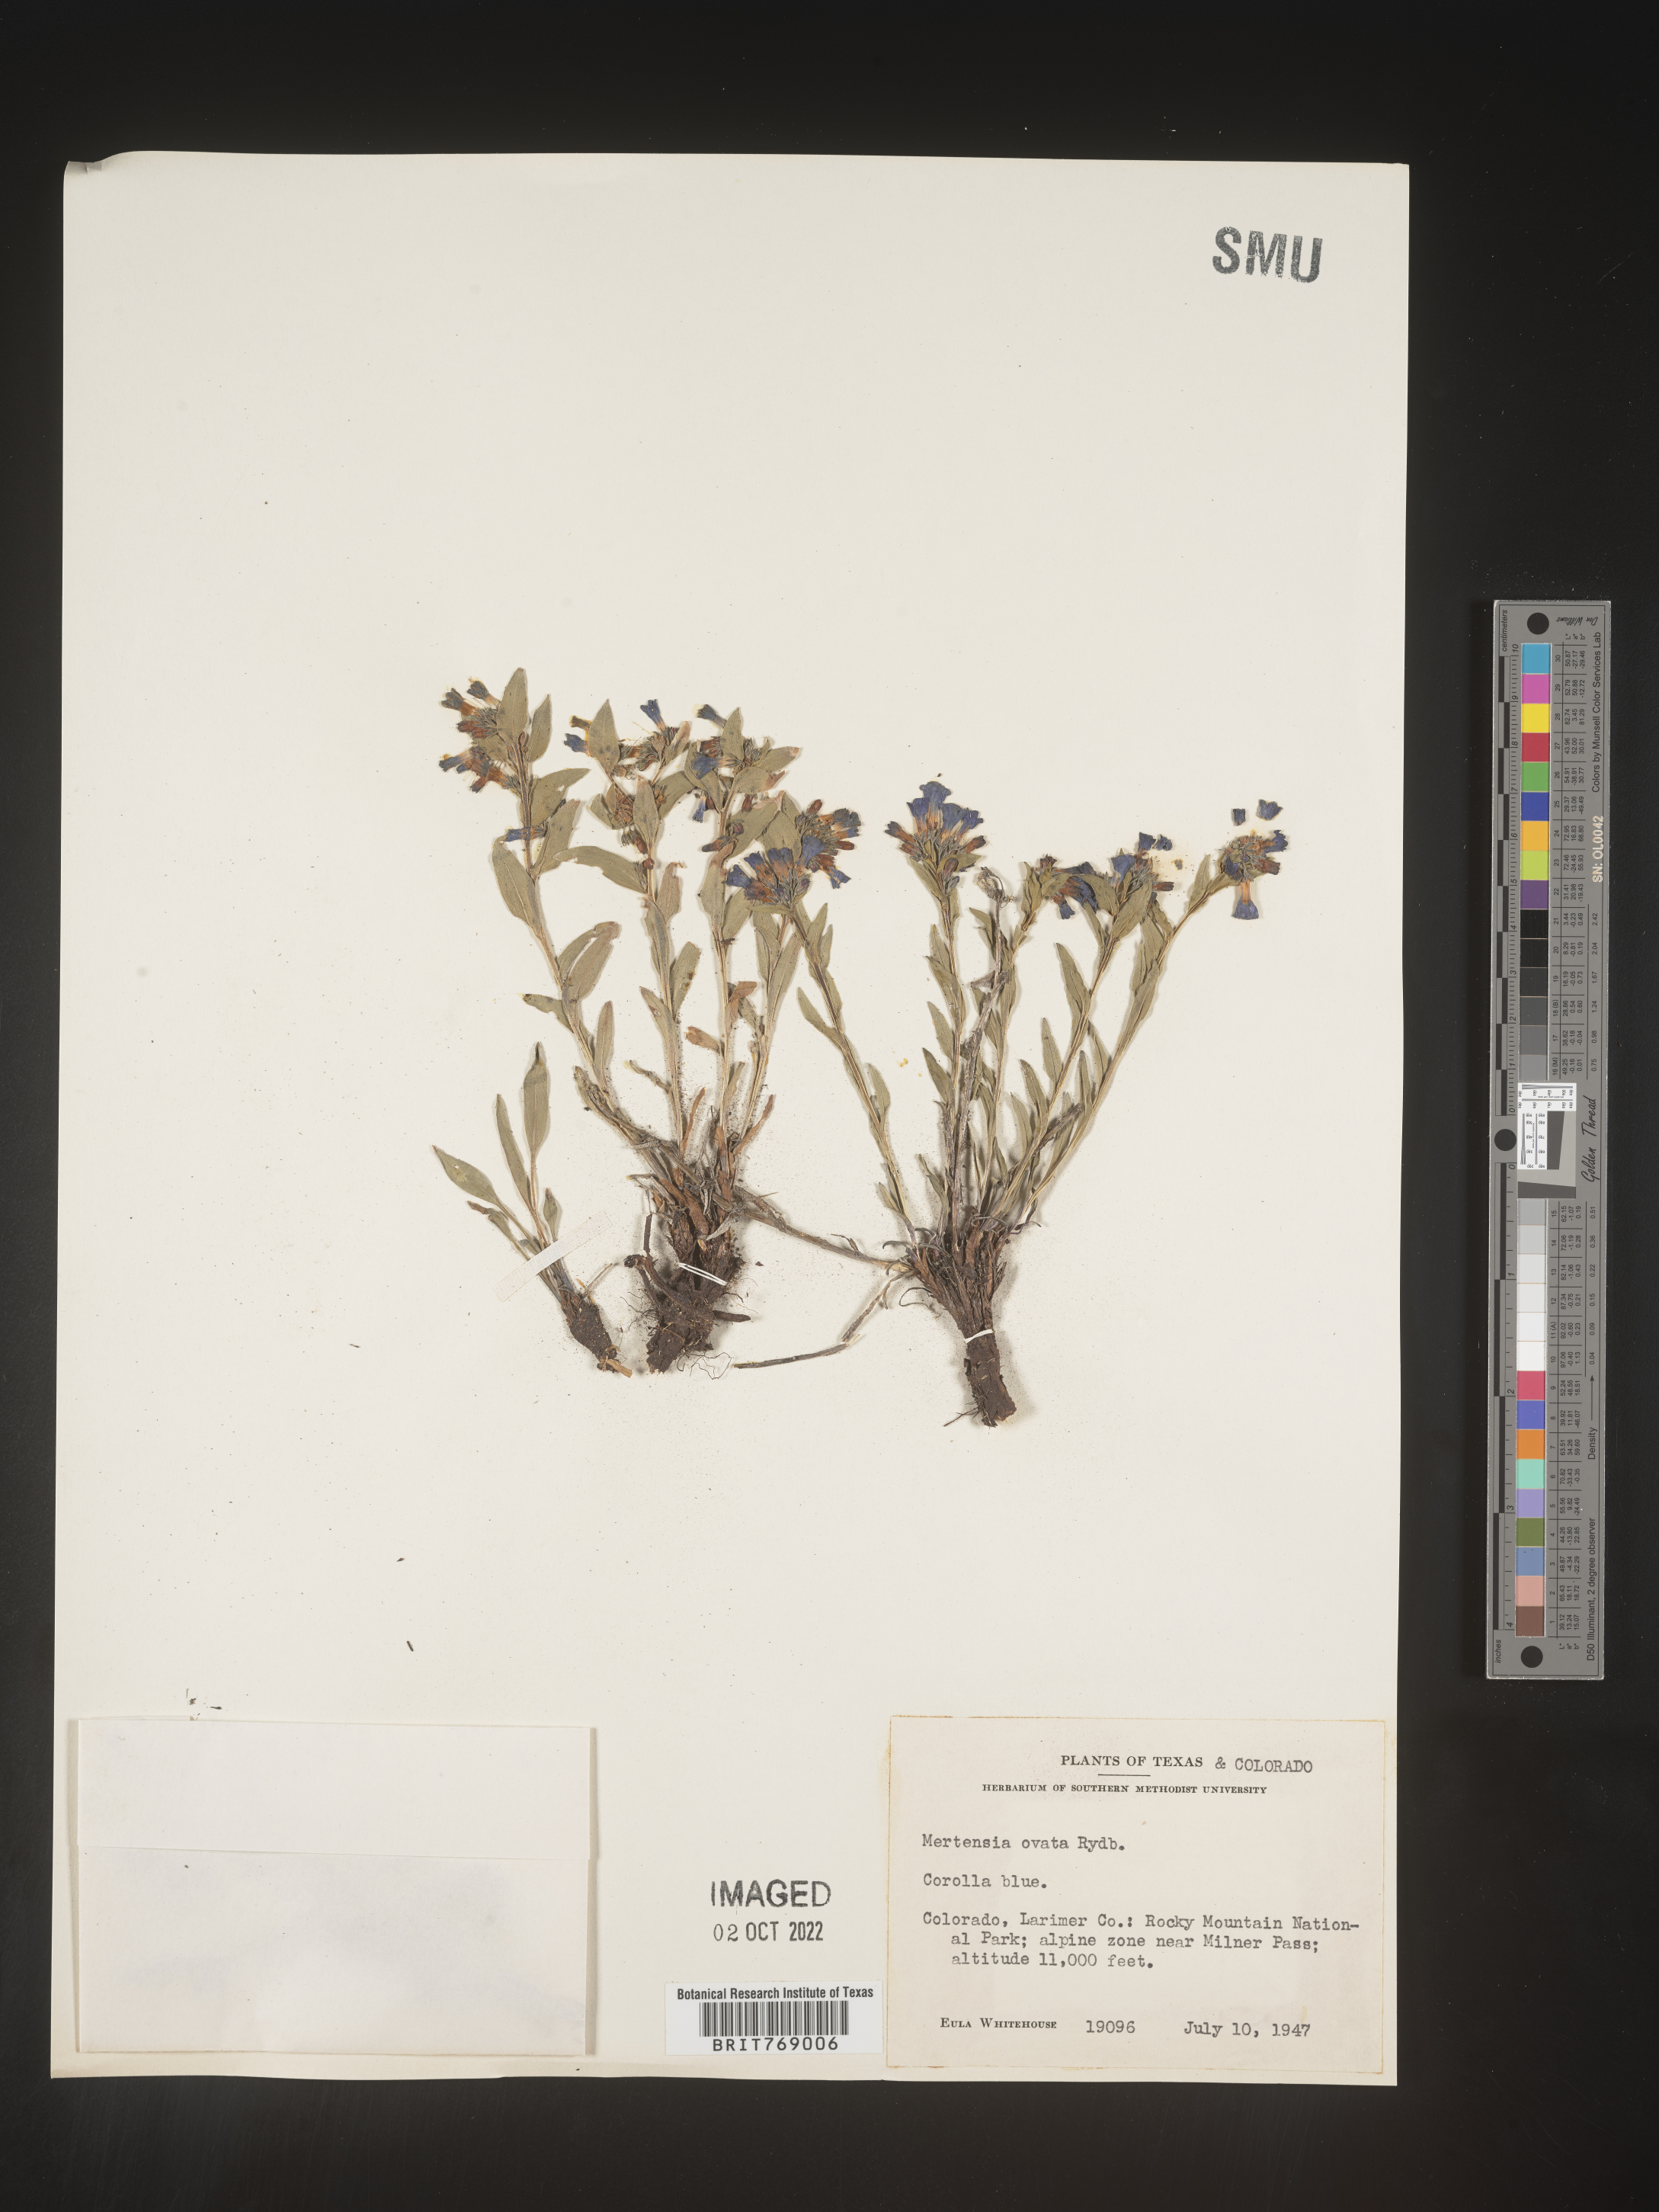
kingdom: Plantae
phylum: Tracheophyta
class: Magnoliopsida
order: Boraginales
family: Boraginaceae
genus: Mertensia
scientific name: Mertensia
